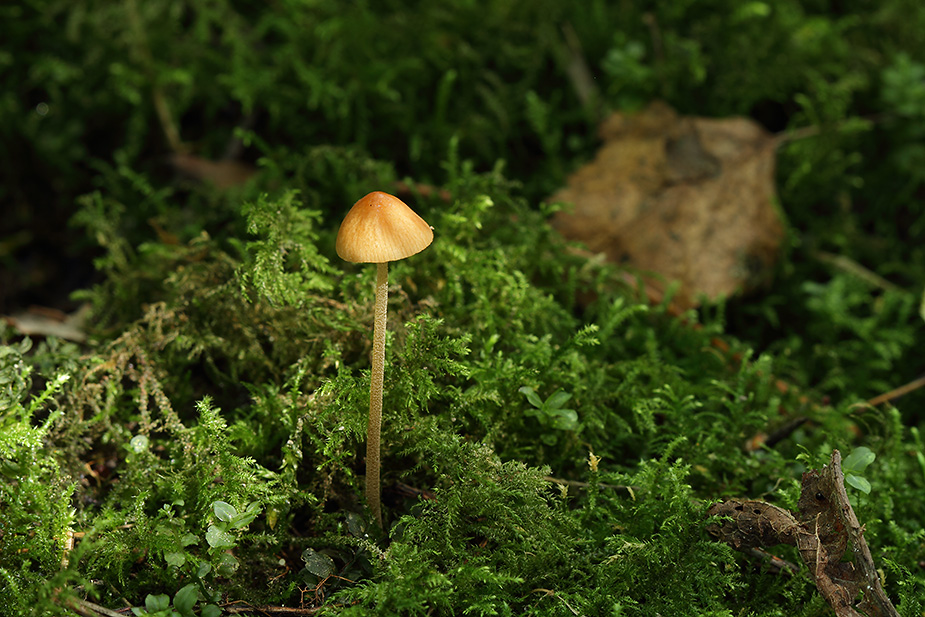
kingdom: Fungi
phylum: Basidiomycota
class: Agaricomycetes
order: Agaricales
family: Bolbitiaceae
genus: Conocybe
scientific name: Conocybe
